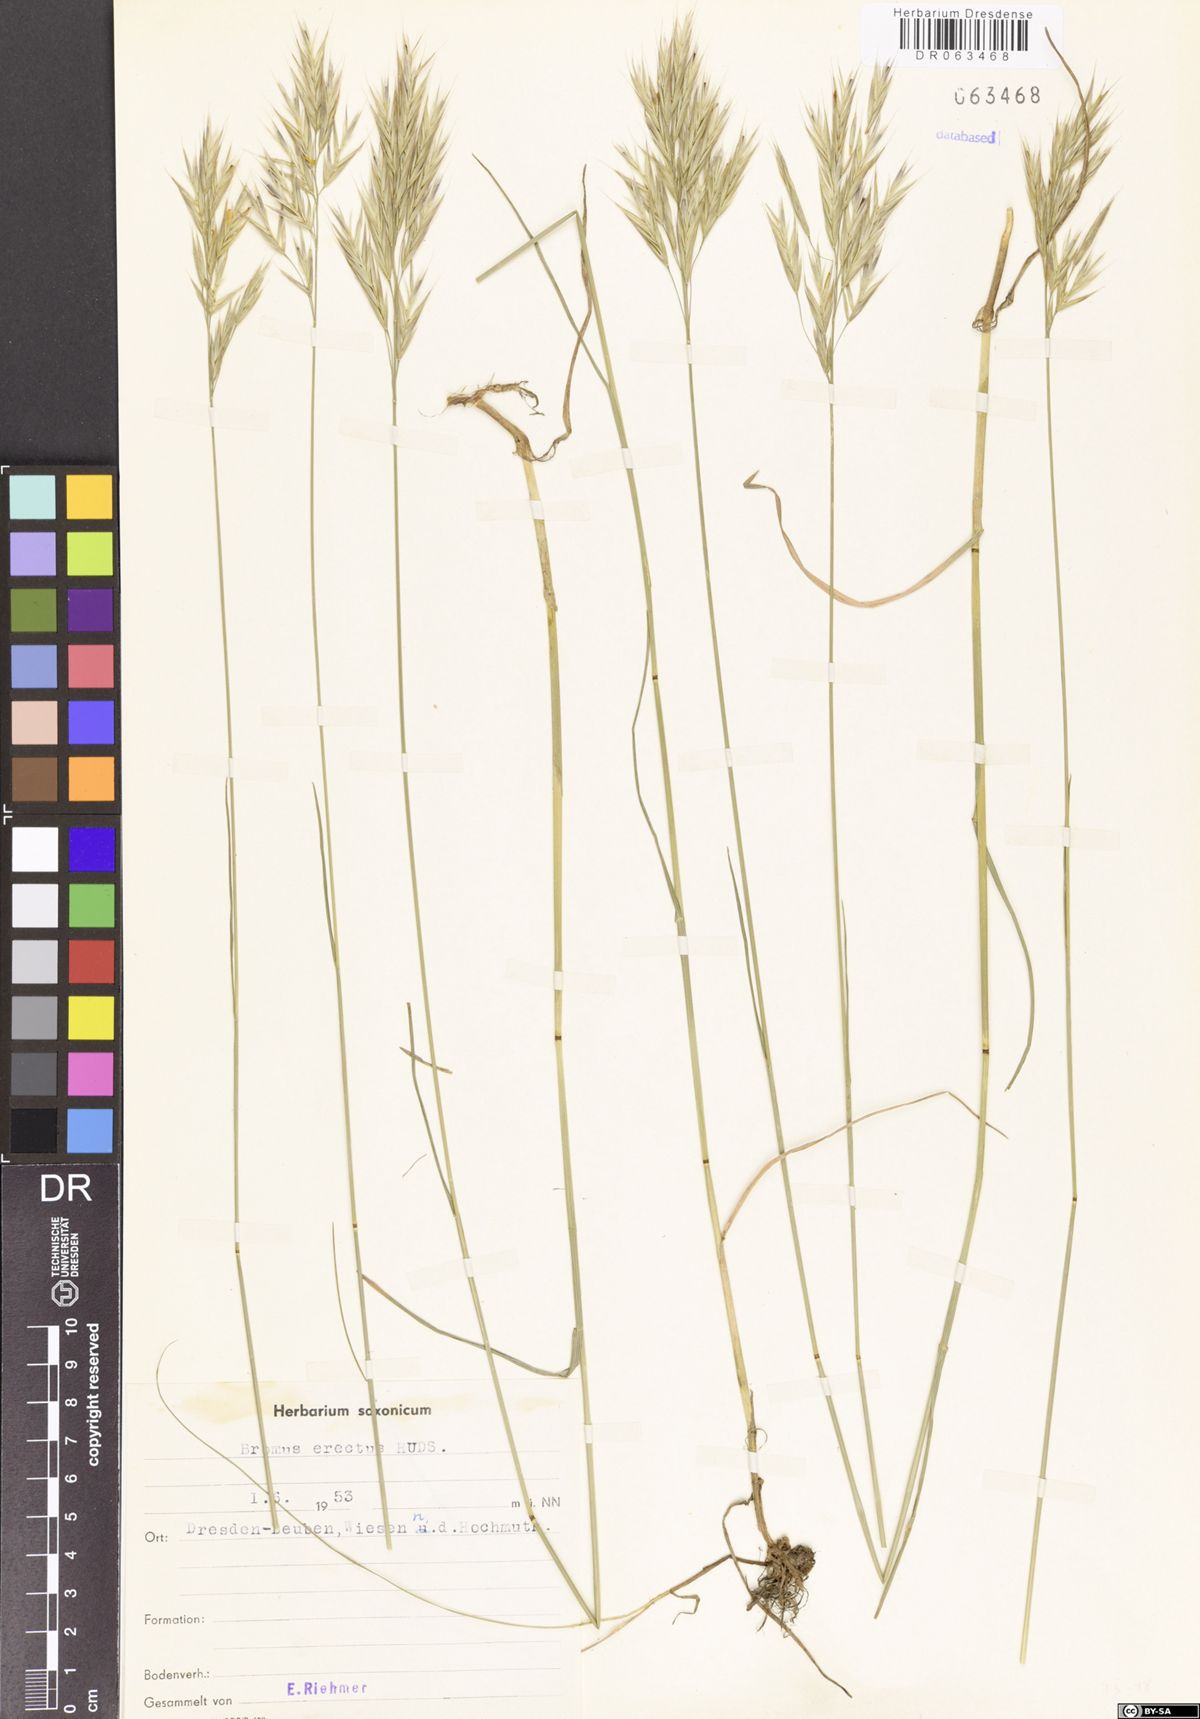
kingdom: Plantae
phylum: Tracheophyta
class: Liliopsida
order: Poales
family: Poaceae
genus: Bromus
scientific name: Bromus erectus
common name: Erect brome
